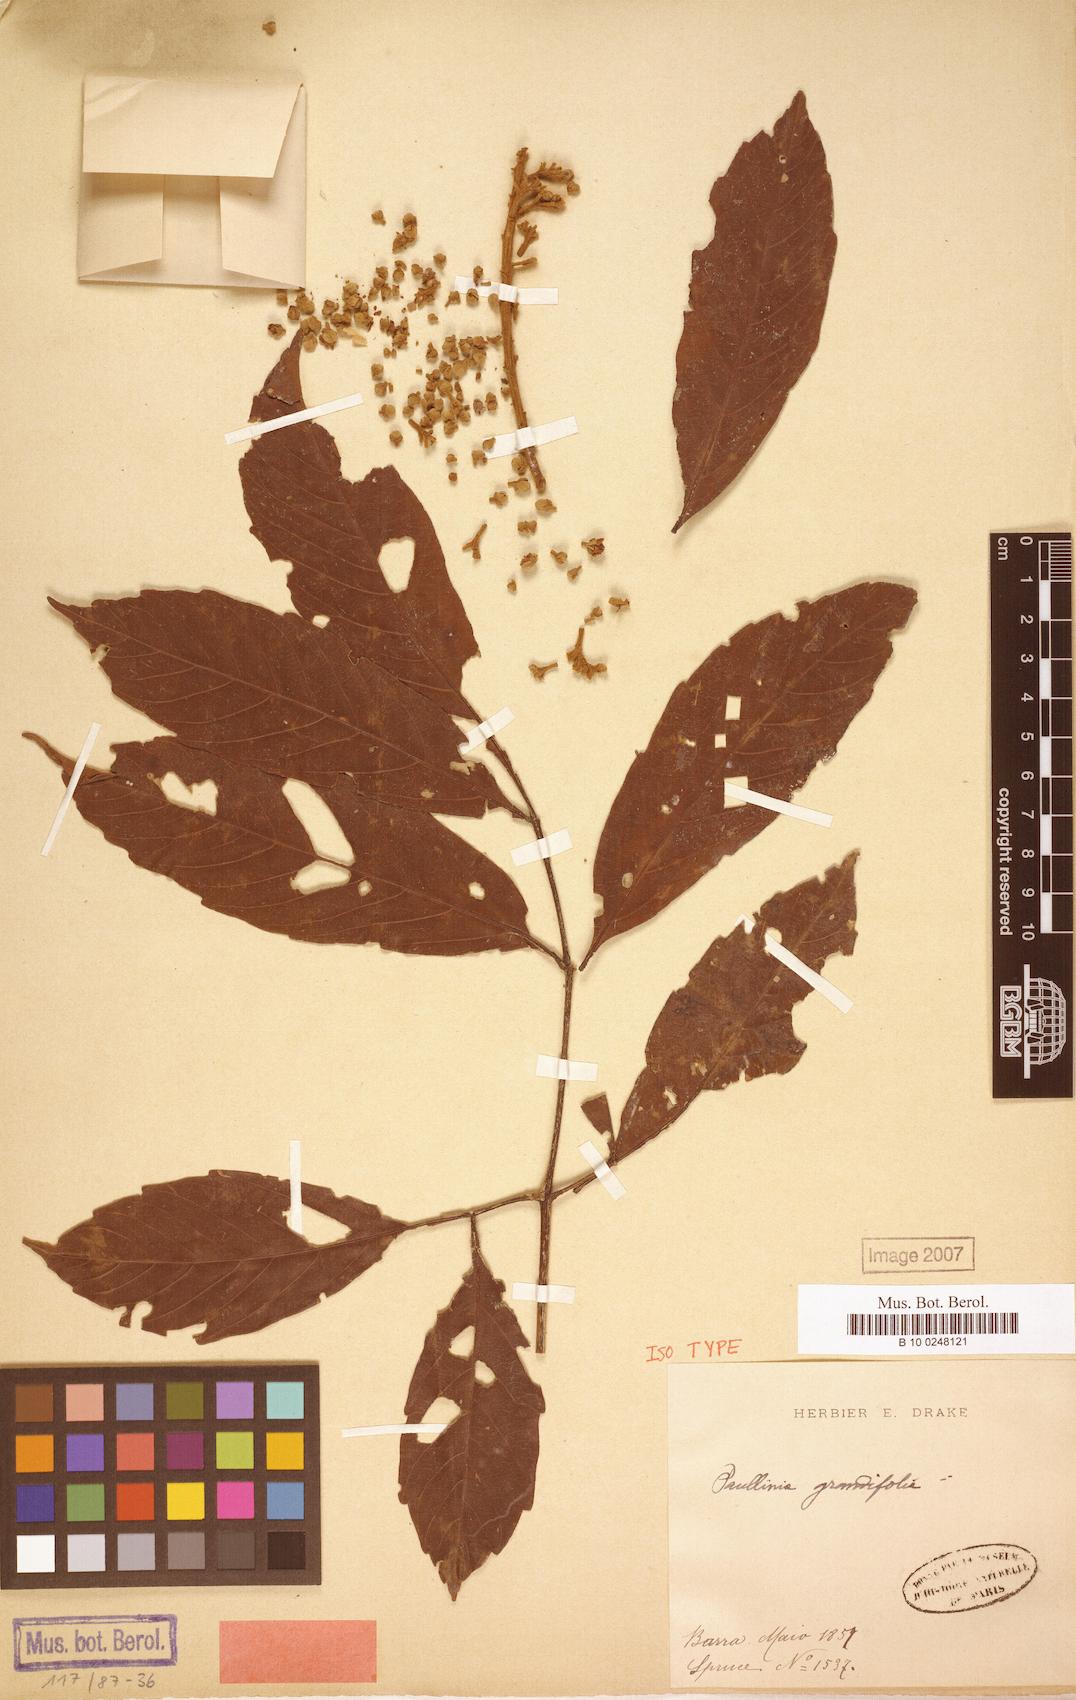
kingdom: Plantae
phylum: Tracheophyta
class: Magnoliopsida
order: Sapindales
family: Sapindaceae
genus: Paullinia
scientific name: Paullinia ingifolia
